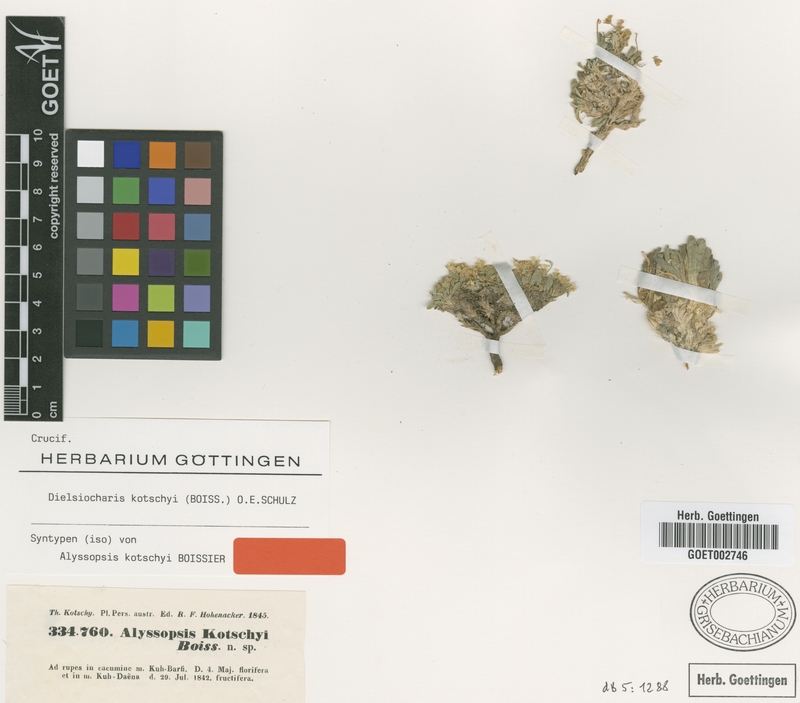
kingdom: Plantae
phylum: Tracheophyta
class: Magnoliopsida
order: Brassicales
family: Brassicaceae
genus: Dielsiocharis
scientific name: Dielsiocharis kotschyi
